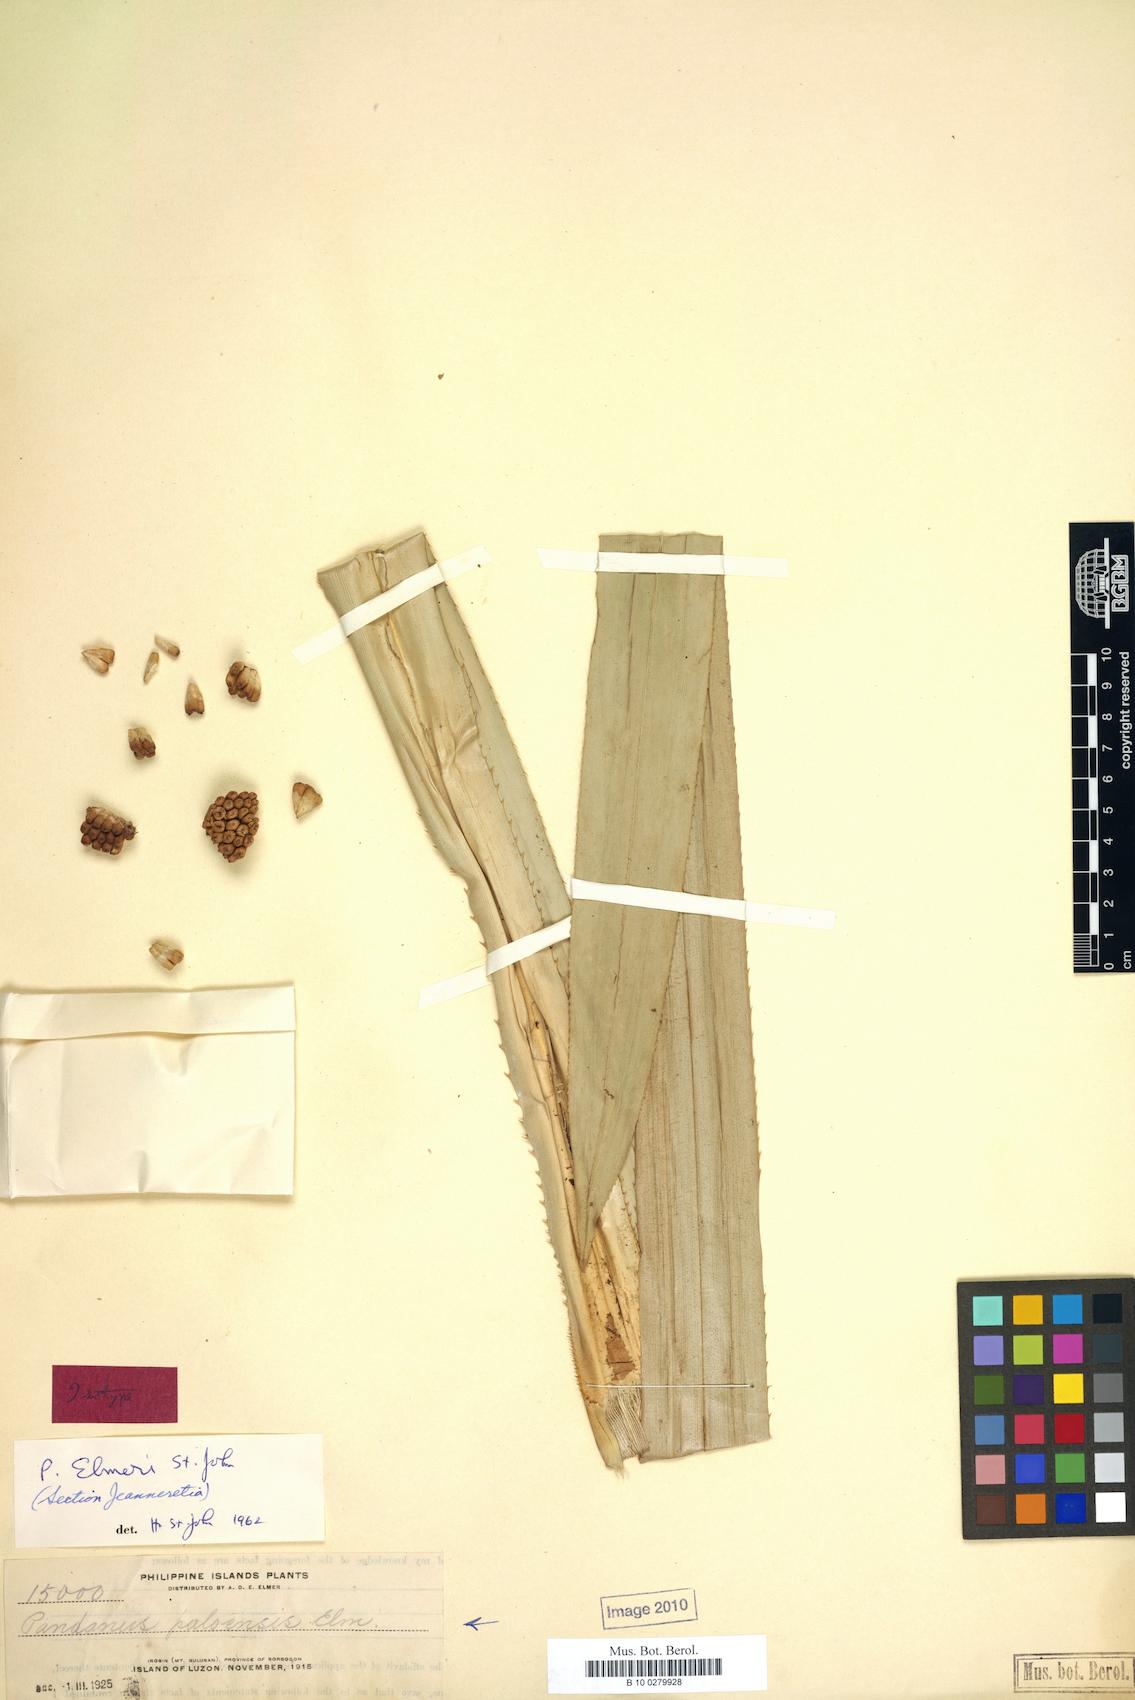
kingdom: Plantae
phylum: Tracheophyta
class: Liliopsida
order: Pandanales
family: Pandanaceae
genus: Pandanus
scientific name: Pandanus
